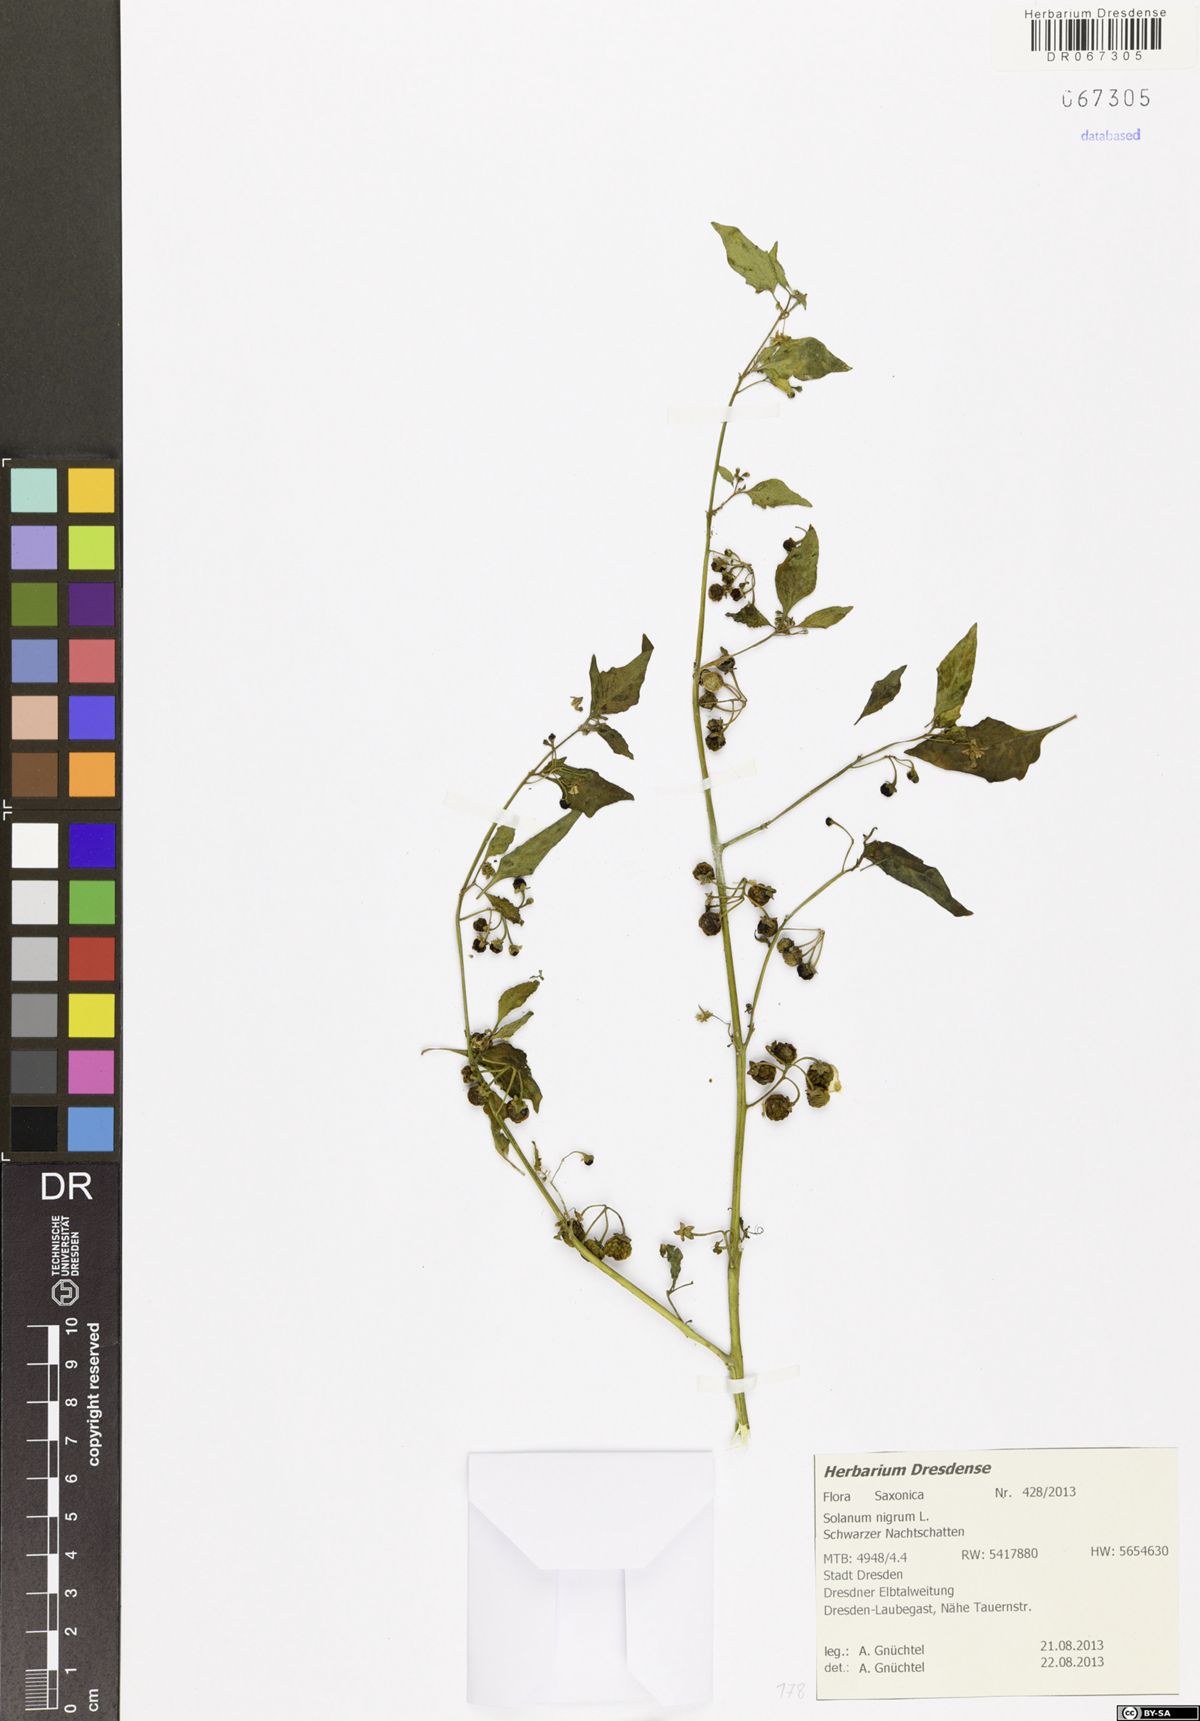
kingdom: Plantae
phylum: Tracheophyta
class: Magnoliopsida
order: Solanales
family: Solanaceae
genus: Solanum
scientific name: Solanum nigrum
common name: Black nightshade
